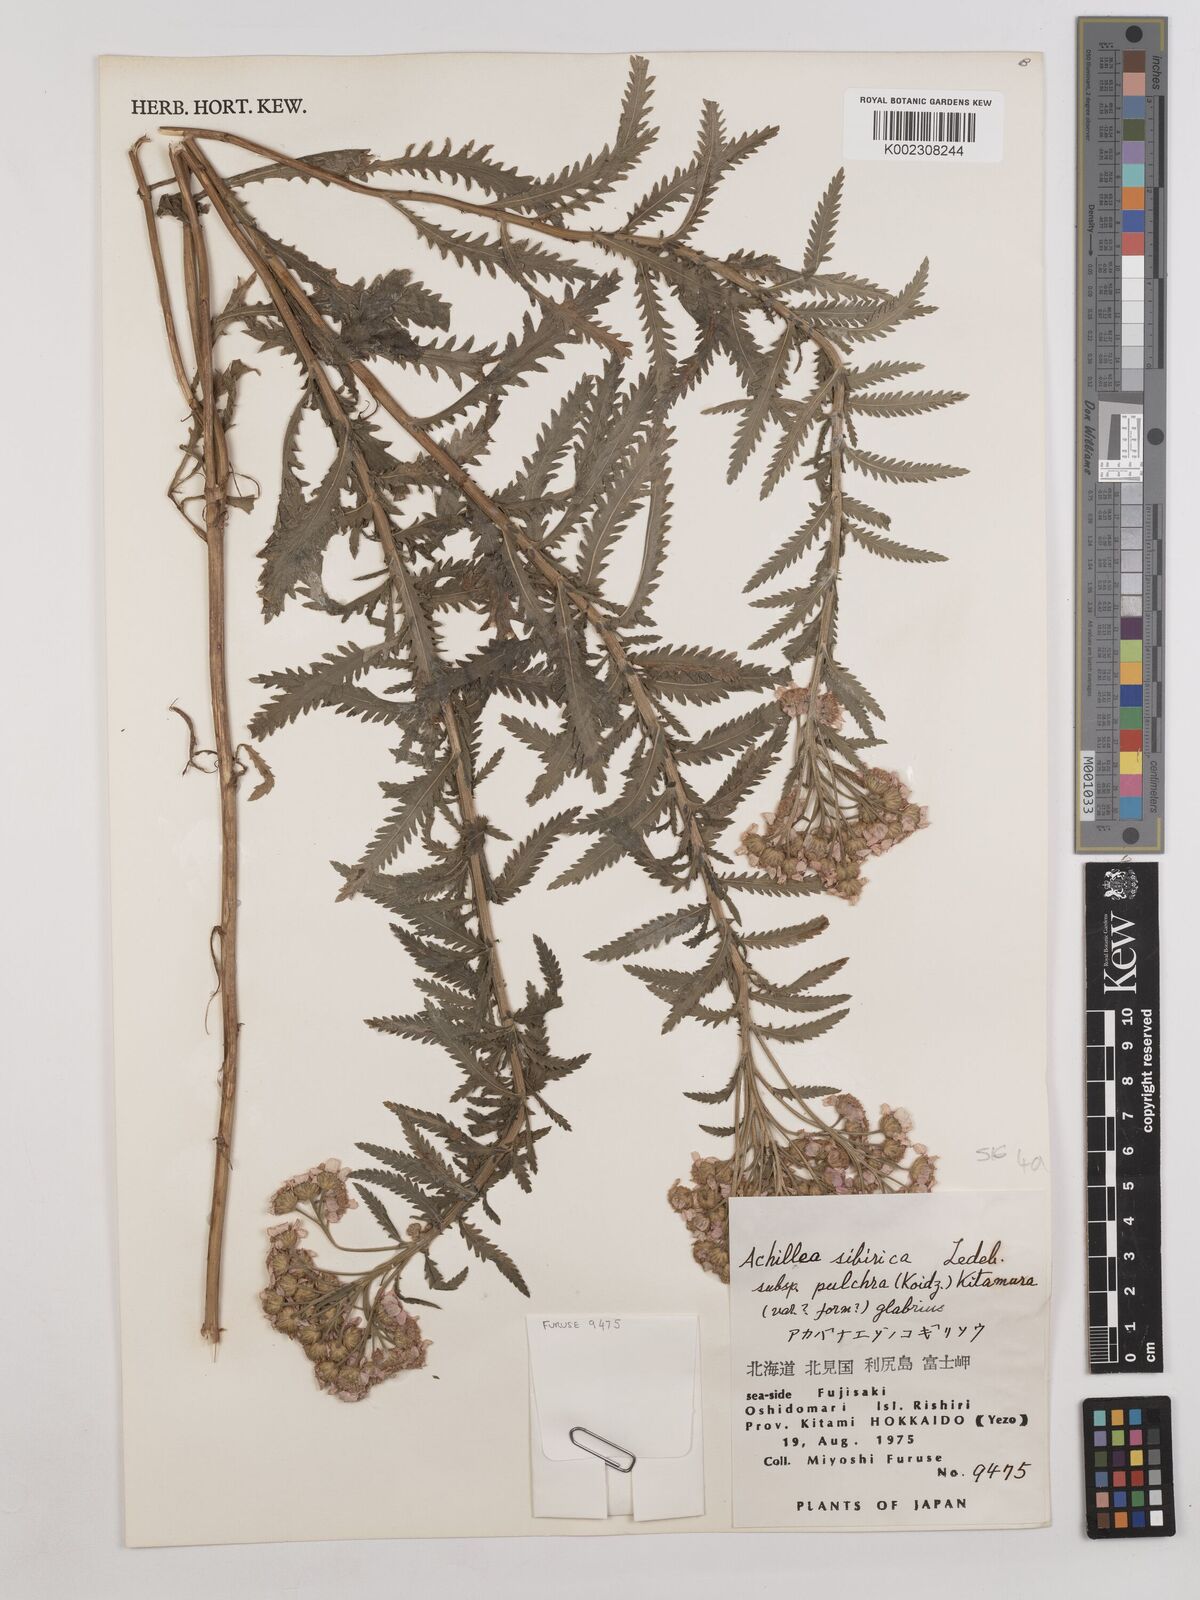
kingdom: Plantae
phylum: Tracheophyta
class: Magnoliopsida
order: Asterales
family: Asteraceae
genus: Achillea
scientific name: Achillea alpina
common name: Siberian yarrow
